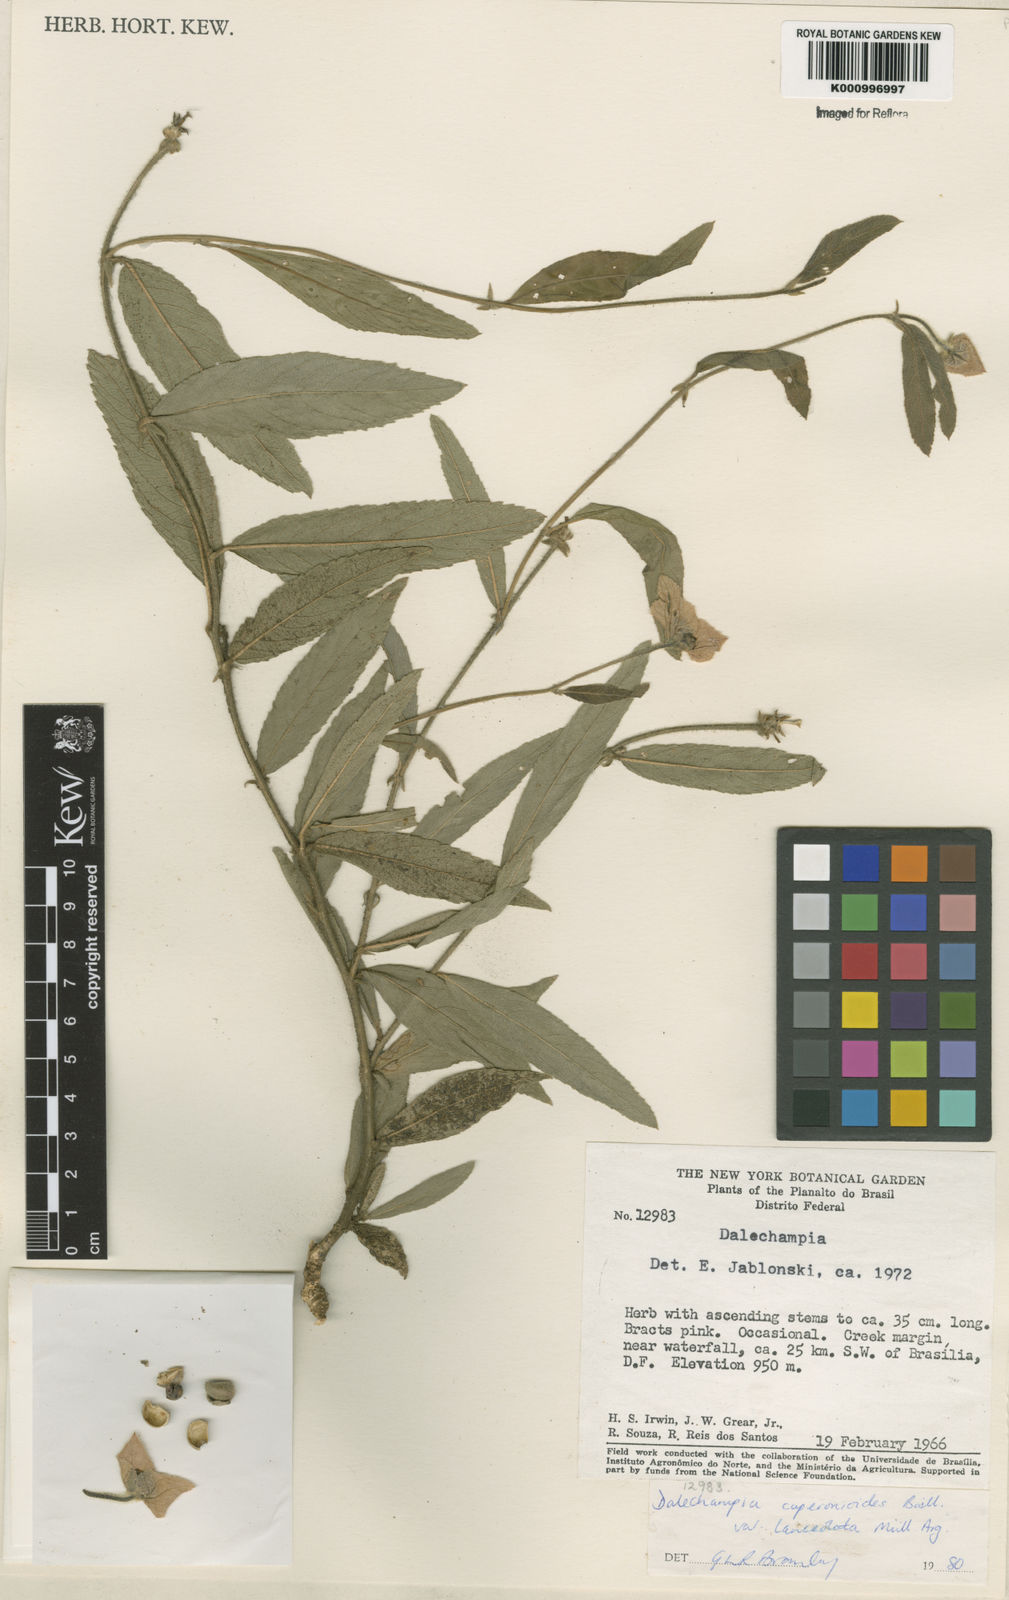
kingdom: Plantae
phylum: Tracheophyta
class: Magnoliopsida
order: Malpighiales
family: Euphorbiaceae
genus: Dalechampia
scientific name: Dalechampia caperonioides
